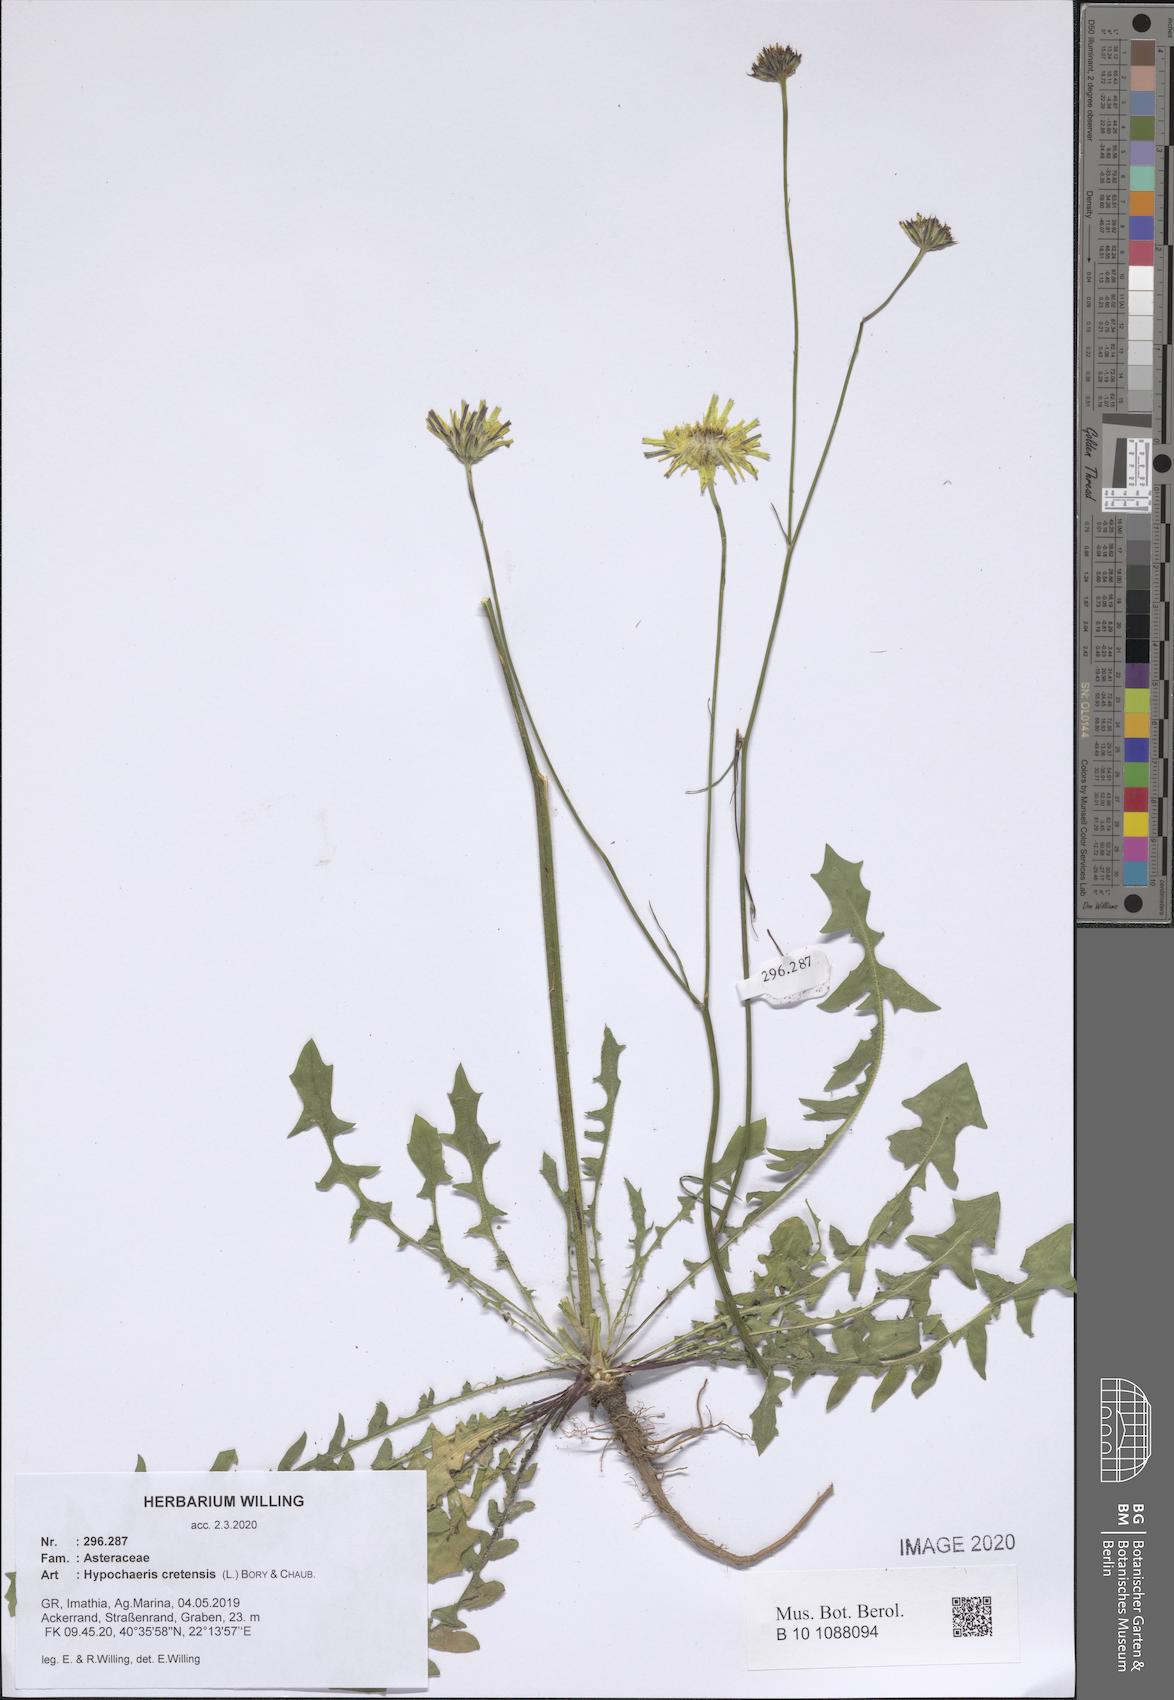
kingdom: Plantae
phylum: Tracheophyta
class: Magnoliopsida
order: Asterales
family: Asteraceae
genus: Hypochaeris
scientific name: Hypochaeris cretensis
